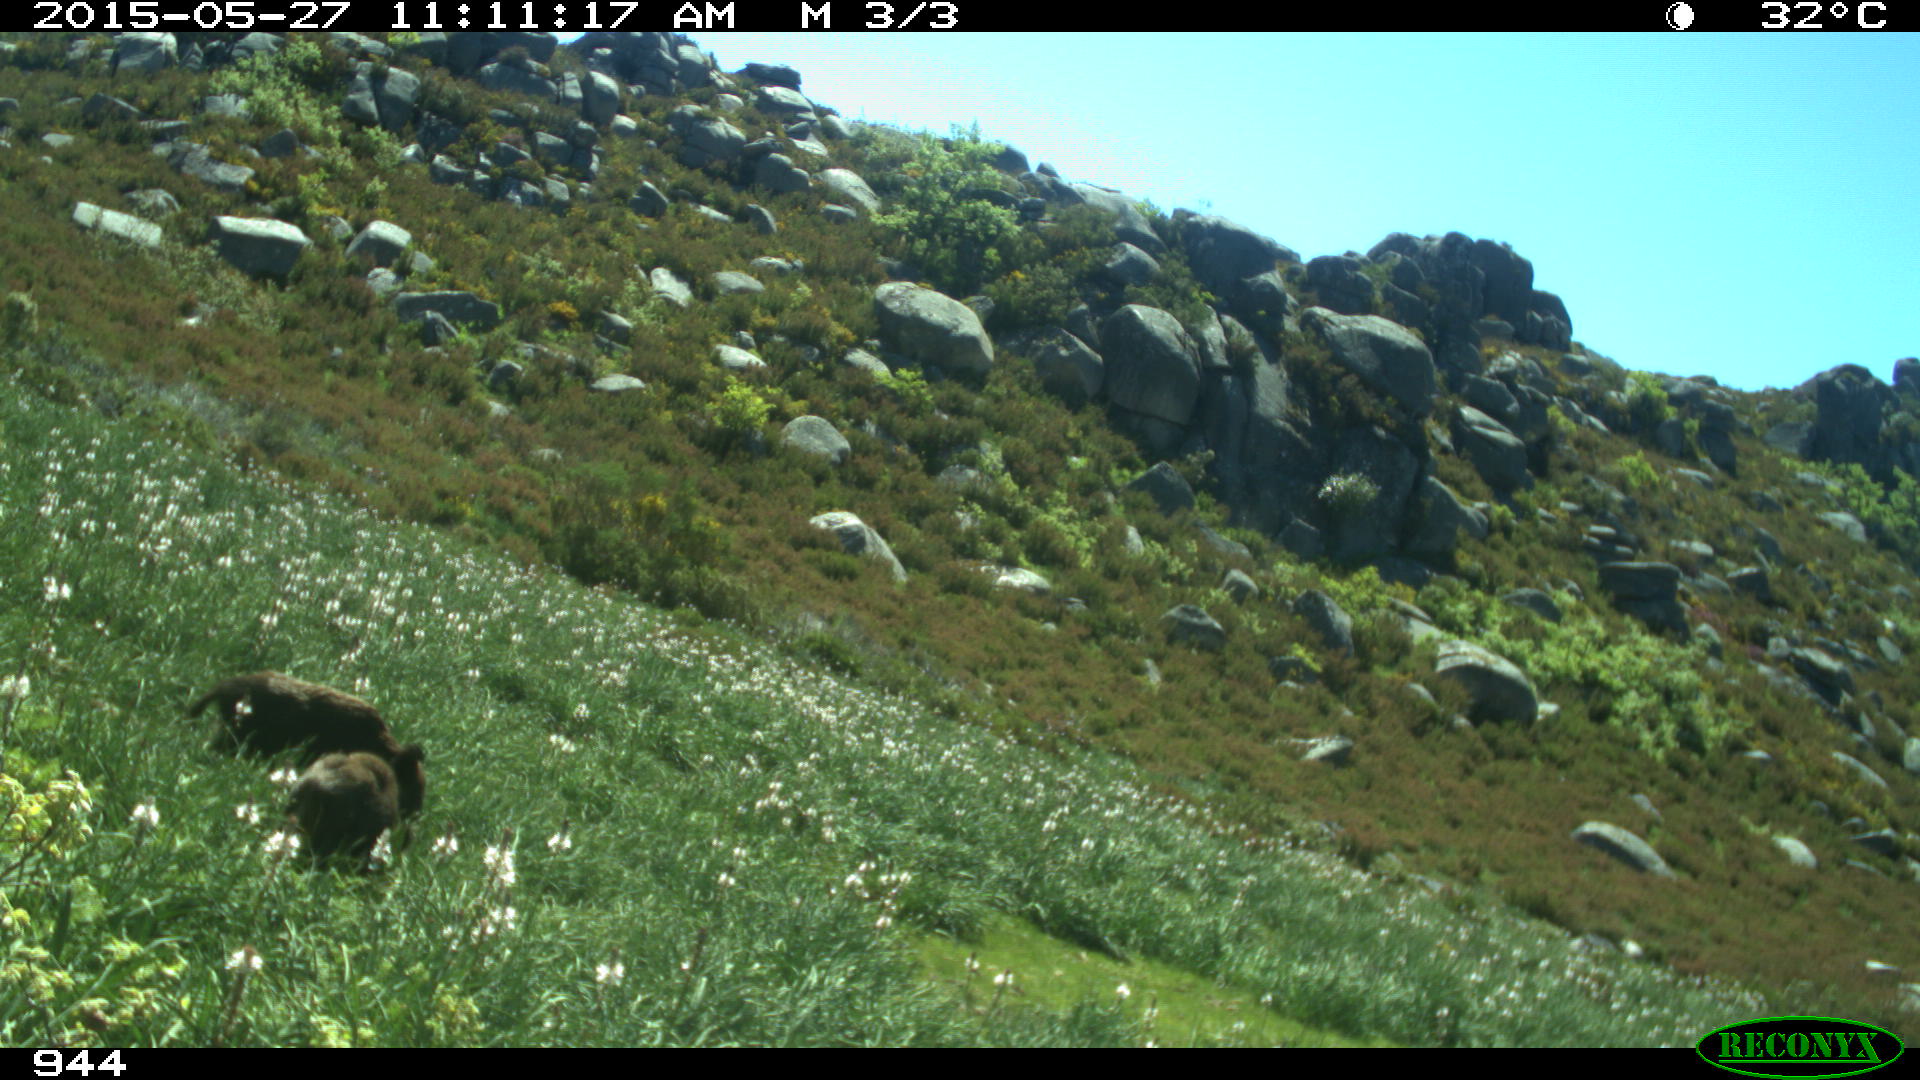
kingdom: Animalia
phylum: Chordata
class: Mammalia
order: Artiodactyla
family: Suidae
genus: Sus
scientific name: Sus scrofa
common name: Wild boar
